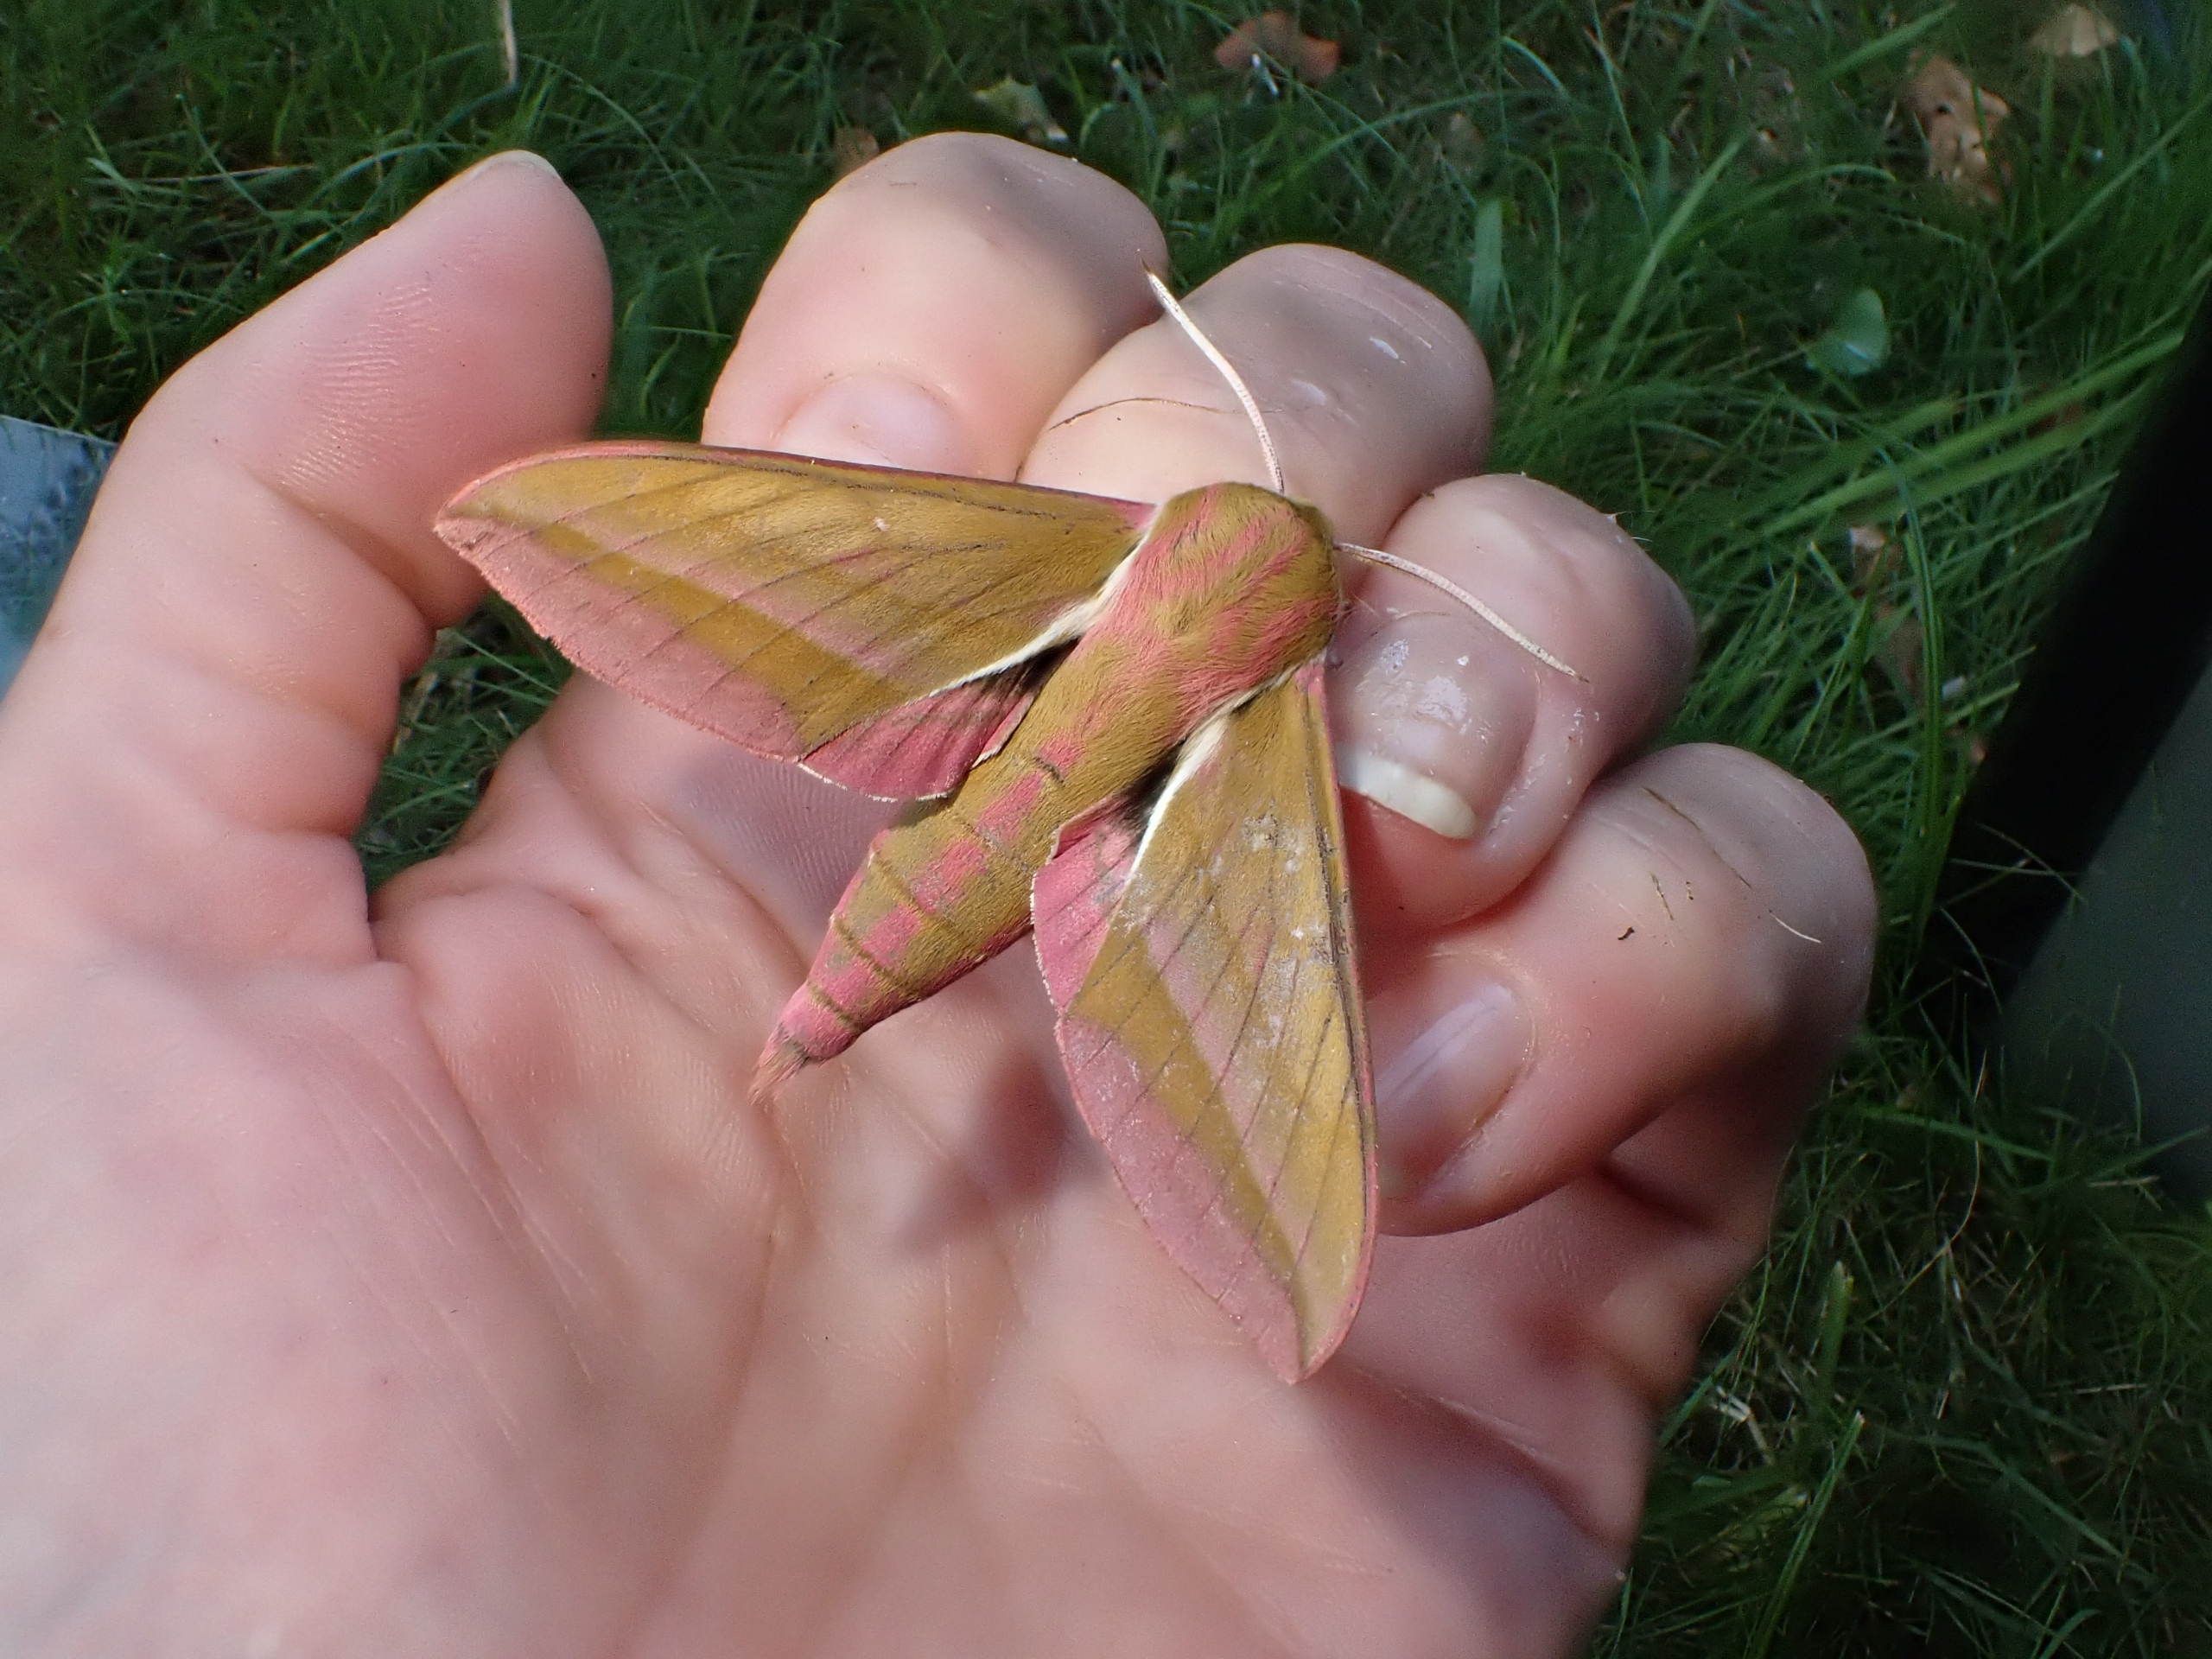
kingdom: Animalia
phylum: Arthropoda
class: Insecta
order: Lepidoptera
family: Sphingidae
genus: Deilephila
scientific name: Deilephila elpenor
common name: Dueurtsværmer
